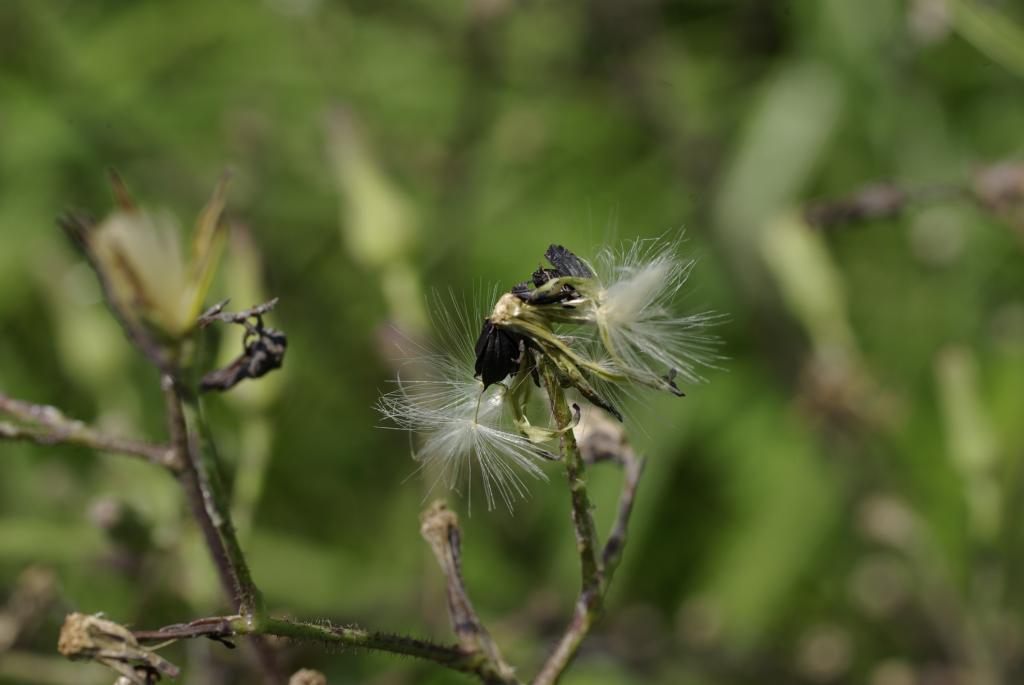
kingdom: Plantae
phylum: Tracheophyta
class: Magnoliopsida
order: Asterales
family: Asteraceae
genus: Lactuca
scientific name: Lactuca formosana
